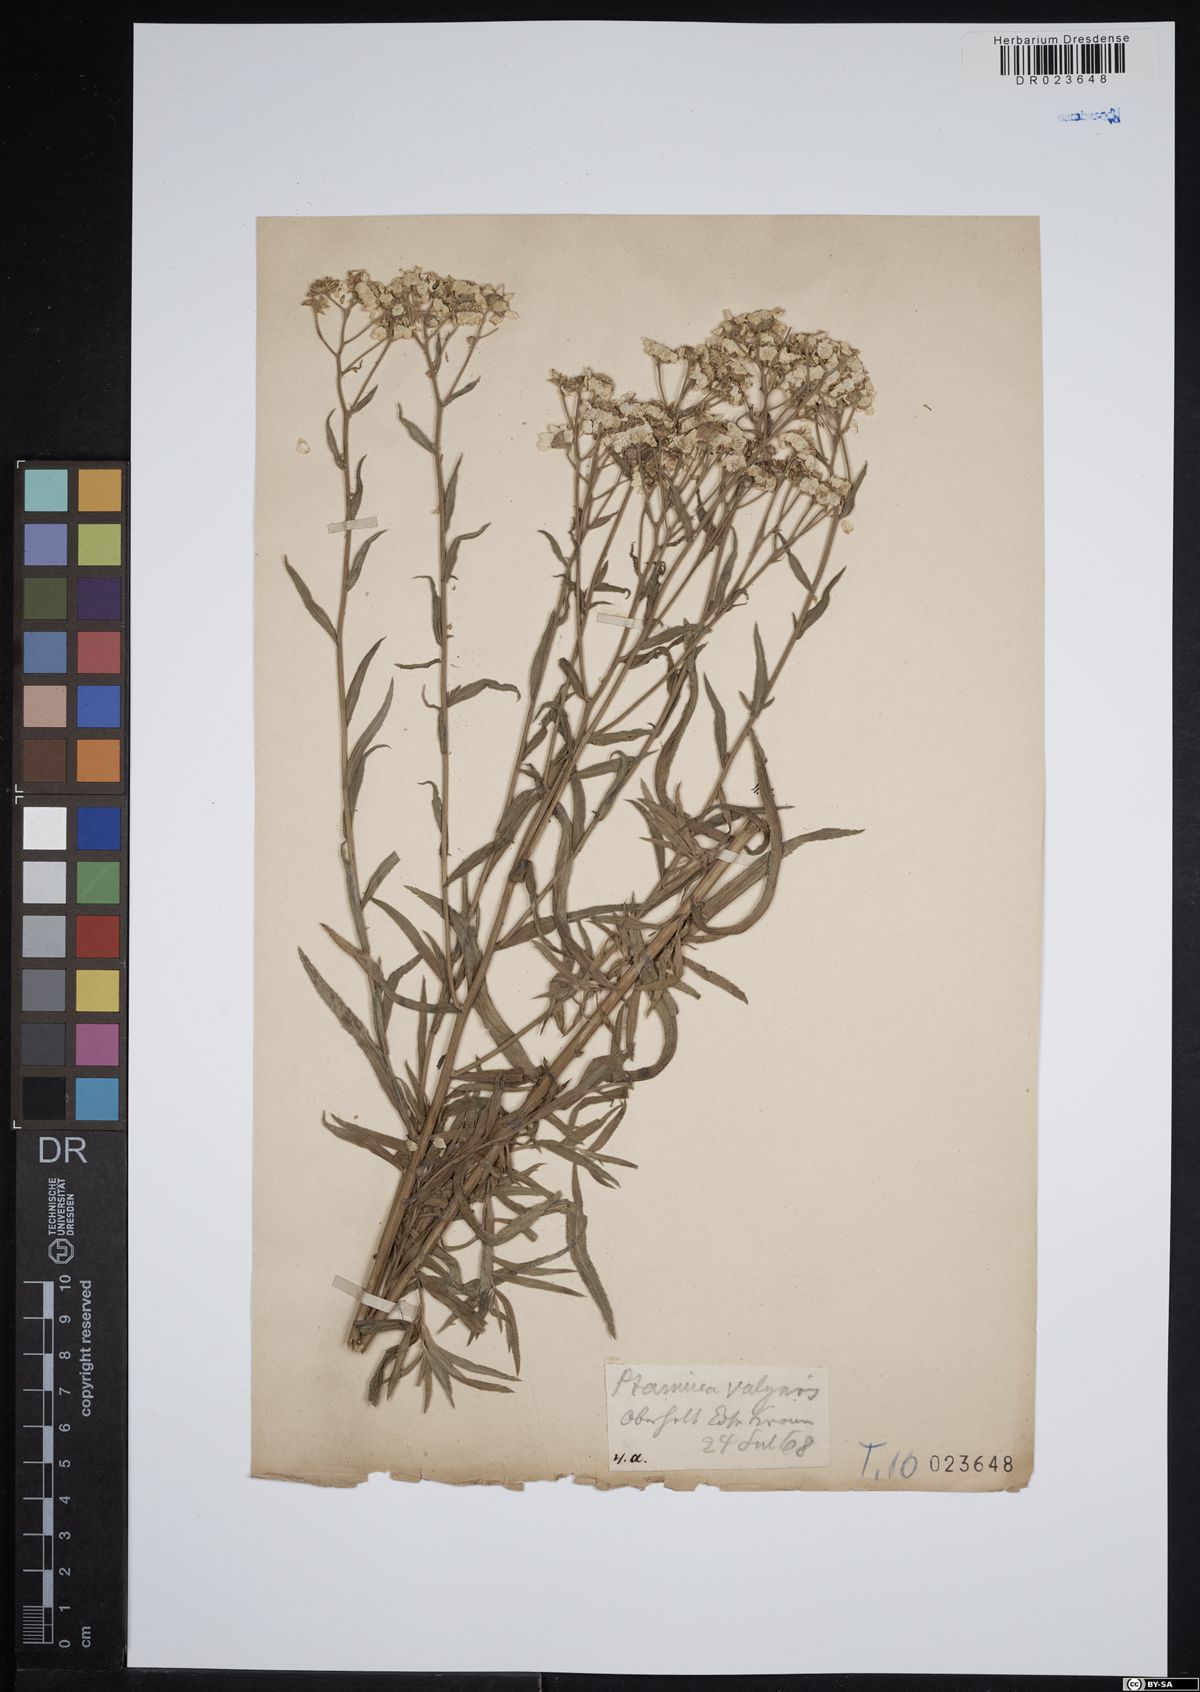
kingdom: Plantae
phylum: Tracheophyta
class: Magnoliopsida
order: Asterales
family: Asteraceae
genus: Achillea
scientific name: Achillea ptarmica
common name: Sneezeweed
